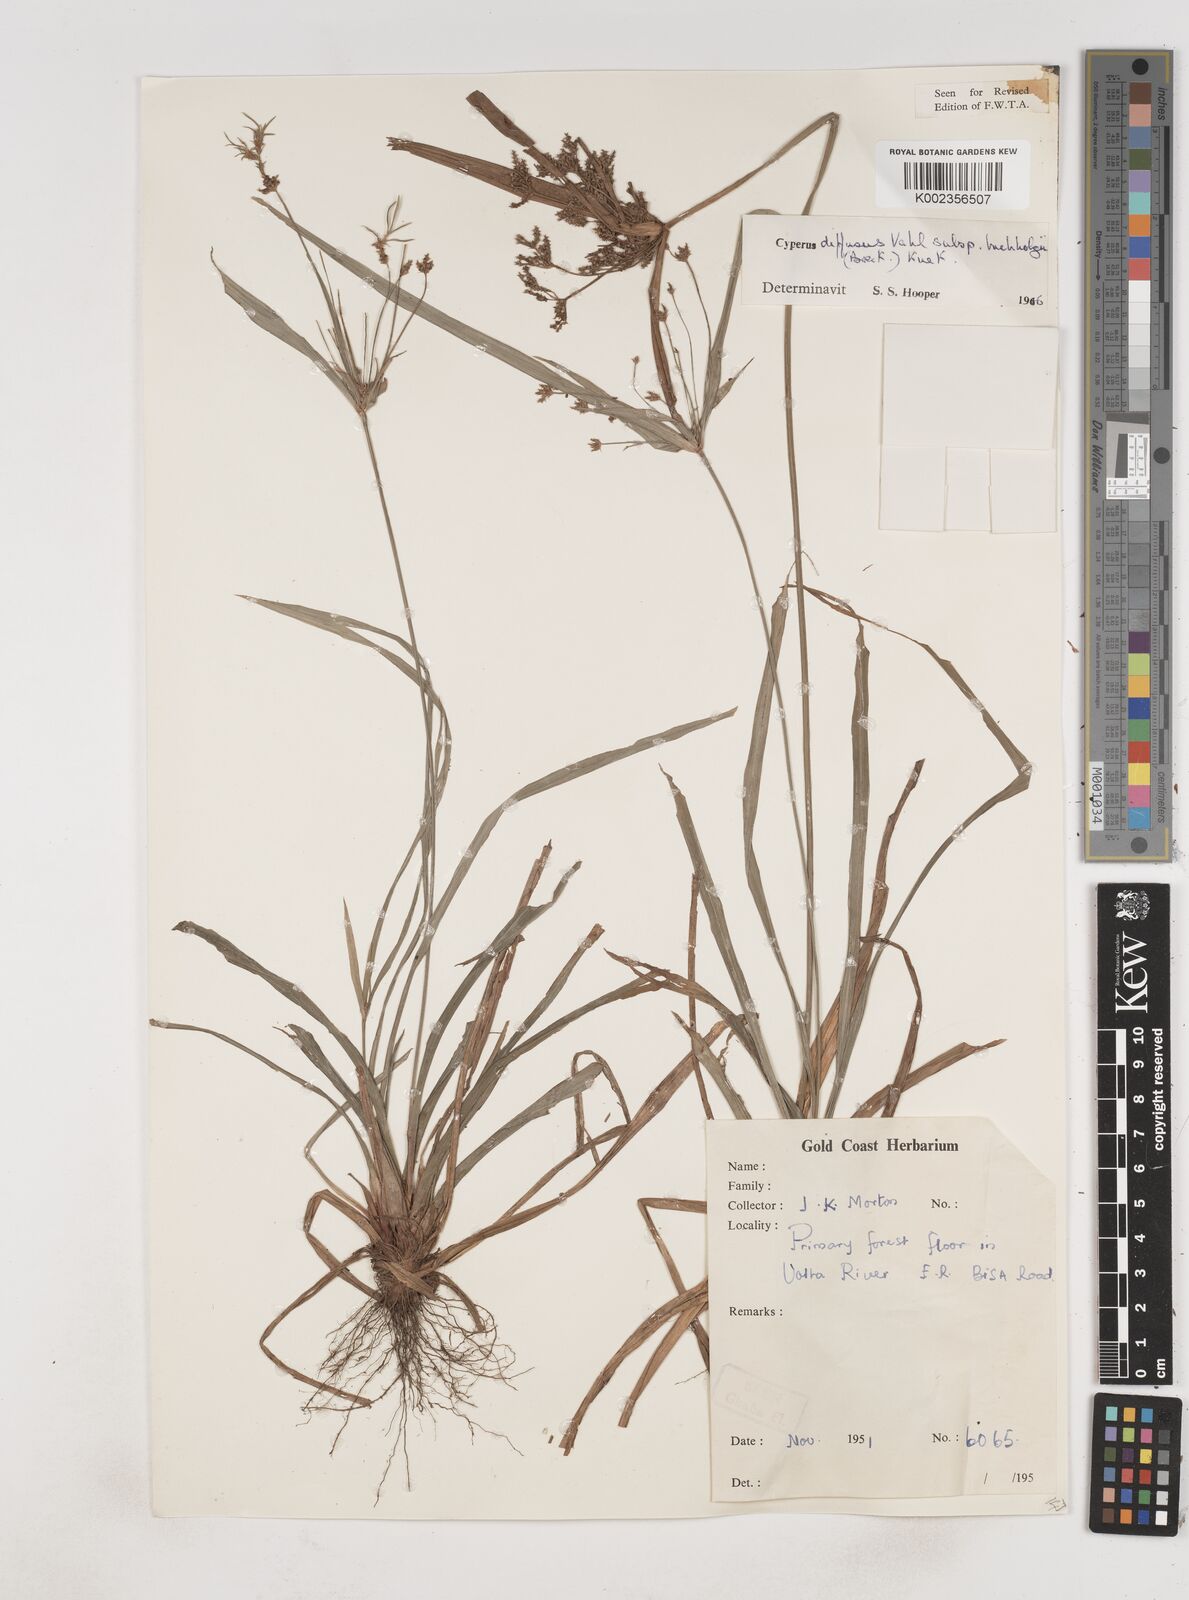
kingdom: Plantae
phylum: Tracheophyta
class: Liliopsida
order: Poales
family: Cyperaceae
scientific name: Cyperaceae
